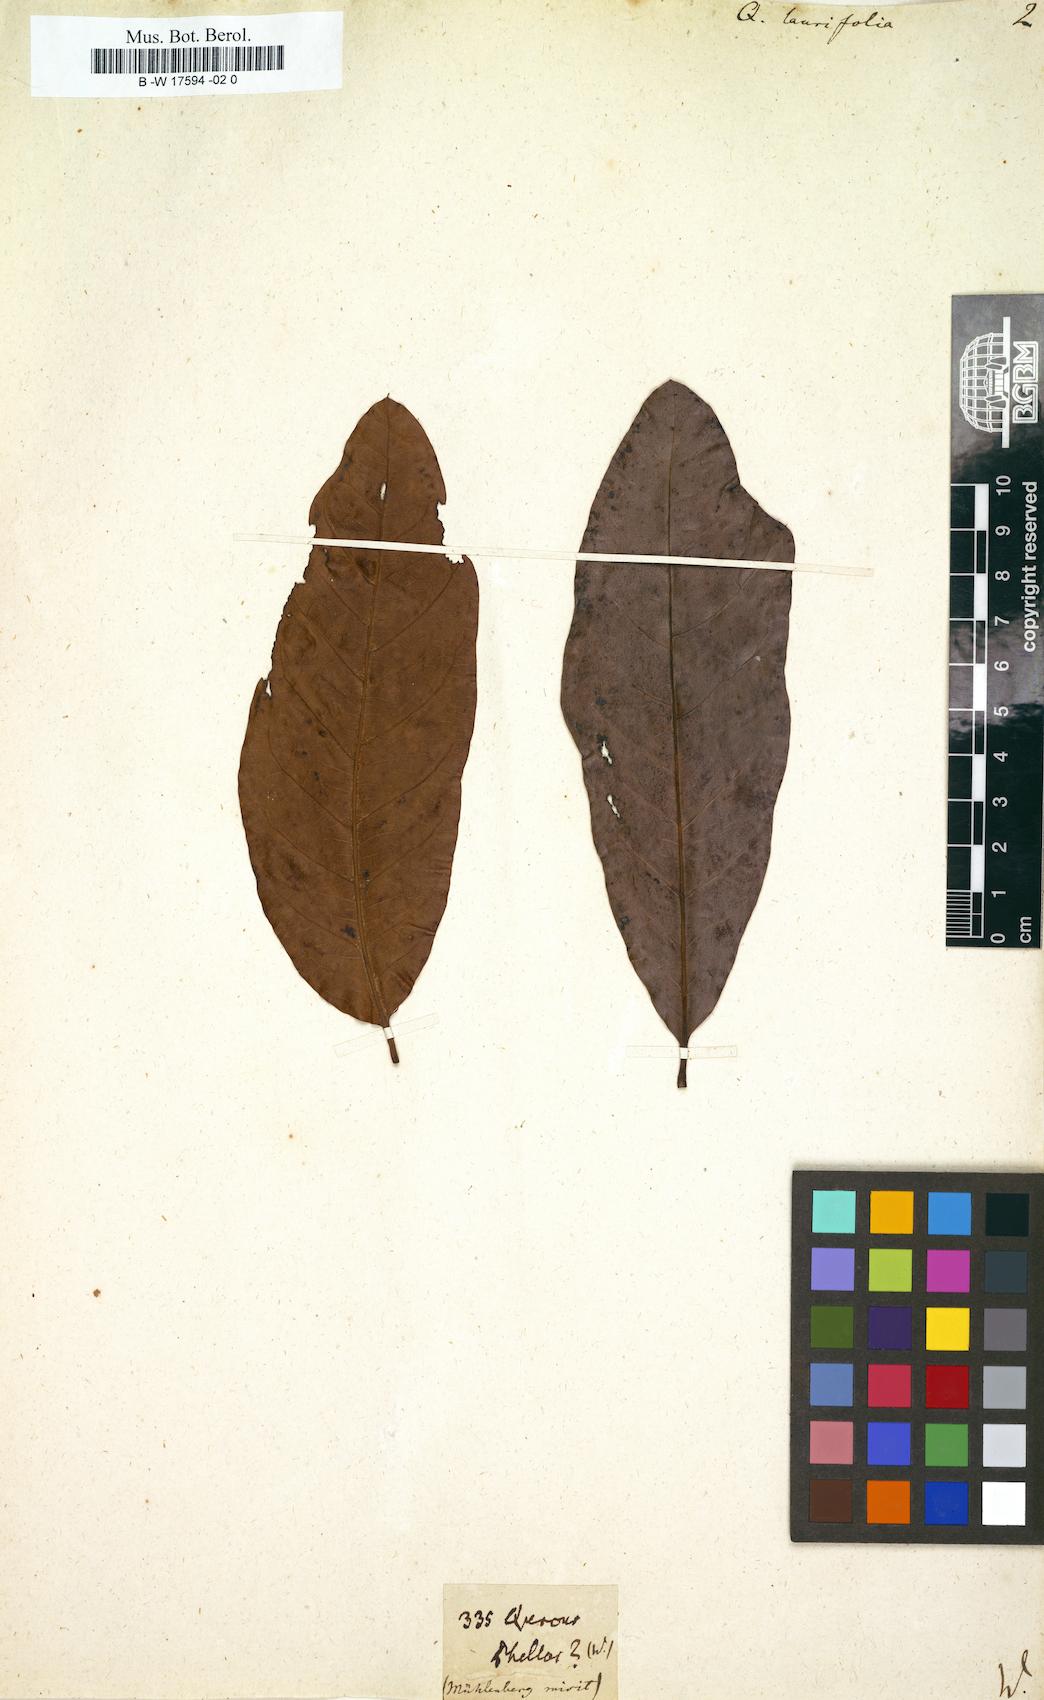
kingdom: Plantae
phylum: Tracheophyta
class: Magnoliopsida
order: Fagales
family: Fagaceae
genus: Quercus
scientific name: Quercus laurifolia
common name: Swamp laurel oak
